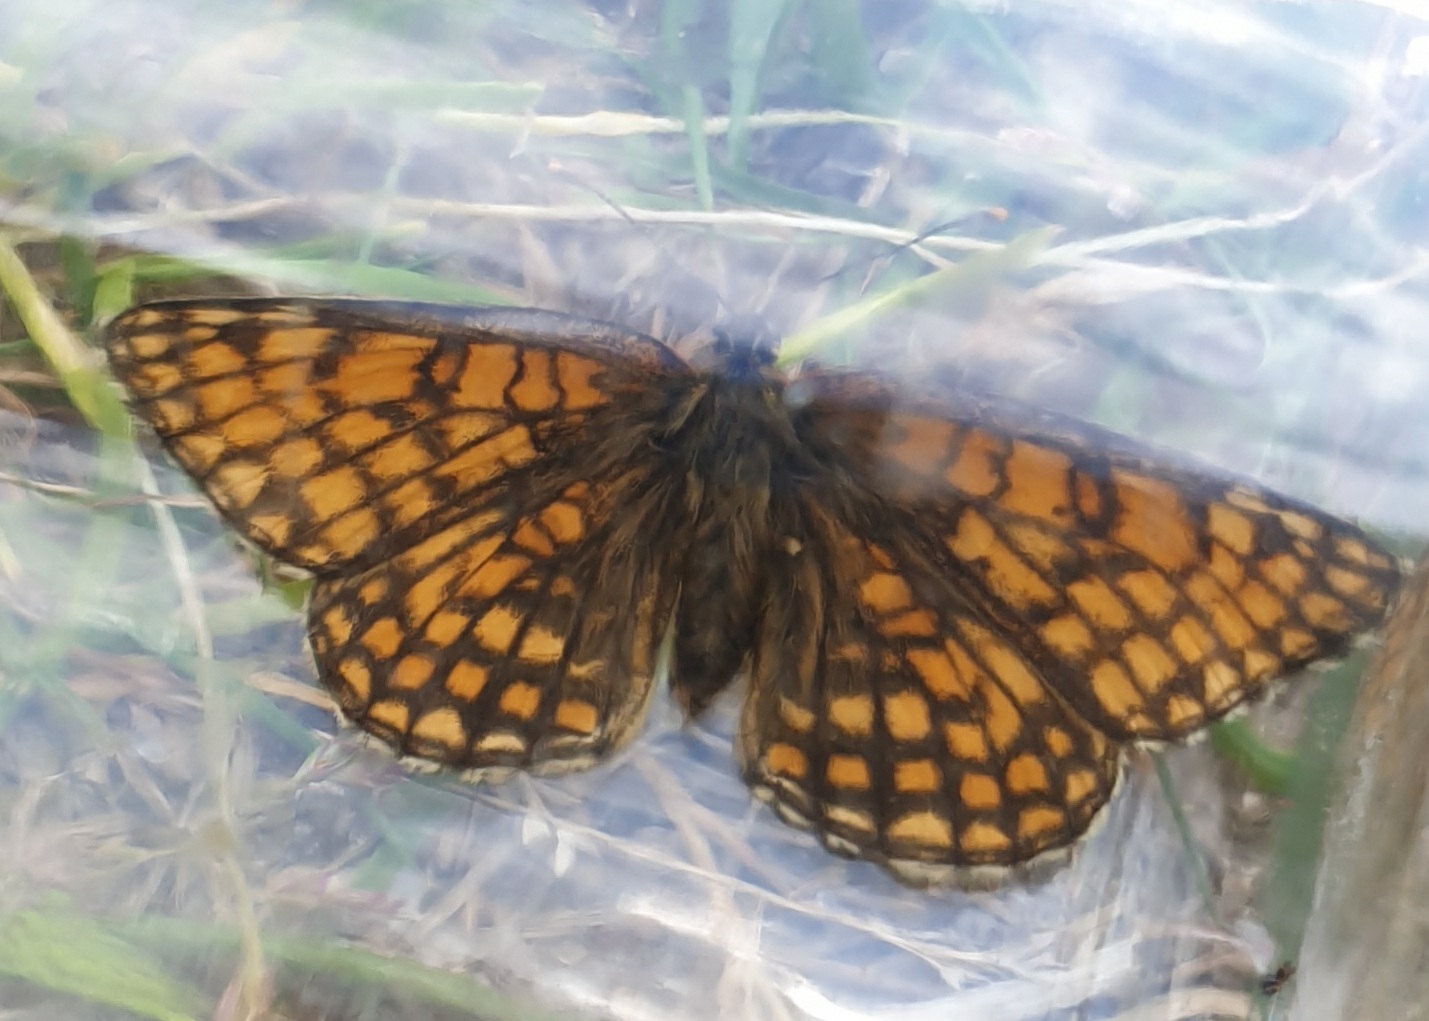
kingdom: Animalia
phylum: Arthropoda
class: Insecta
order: Lepidoptera
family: Nymphalidae
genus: Mellicta
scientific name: Mellicta athalia
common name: Brun pletvinge
